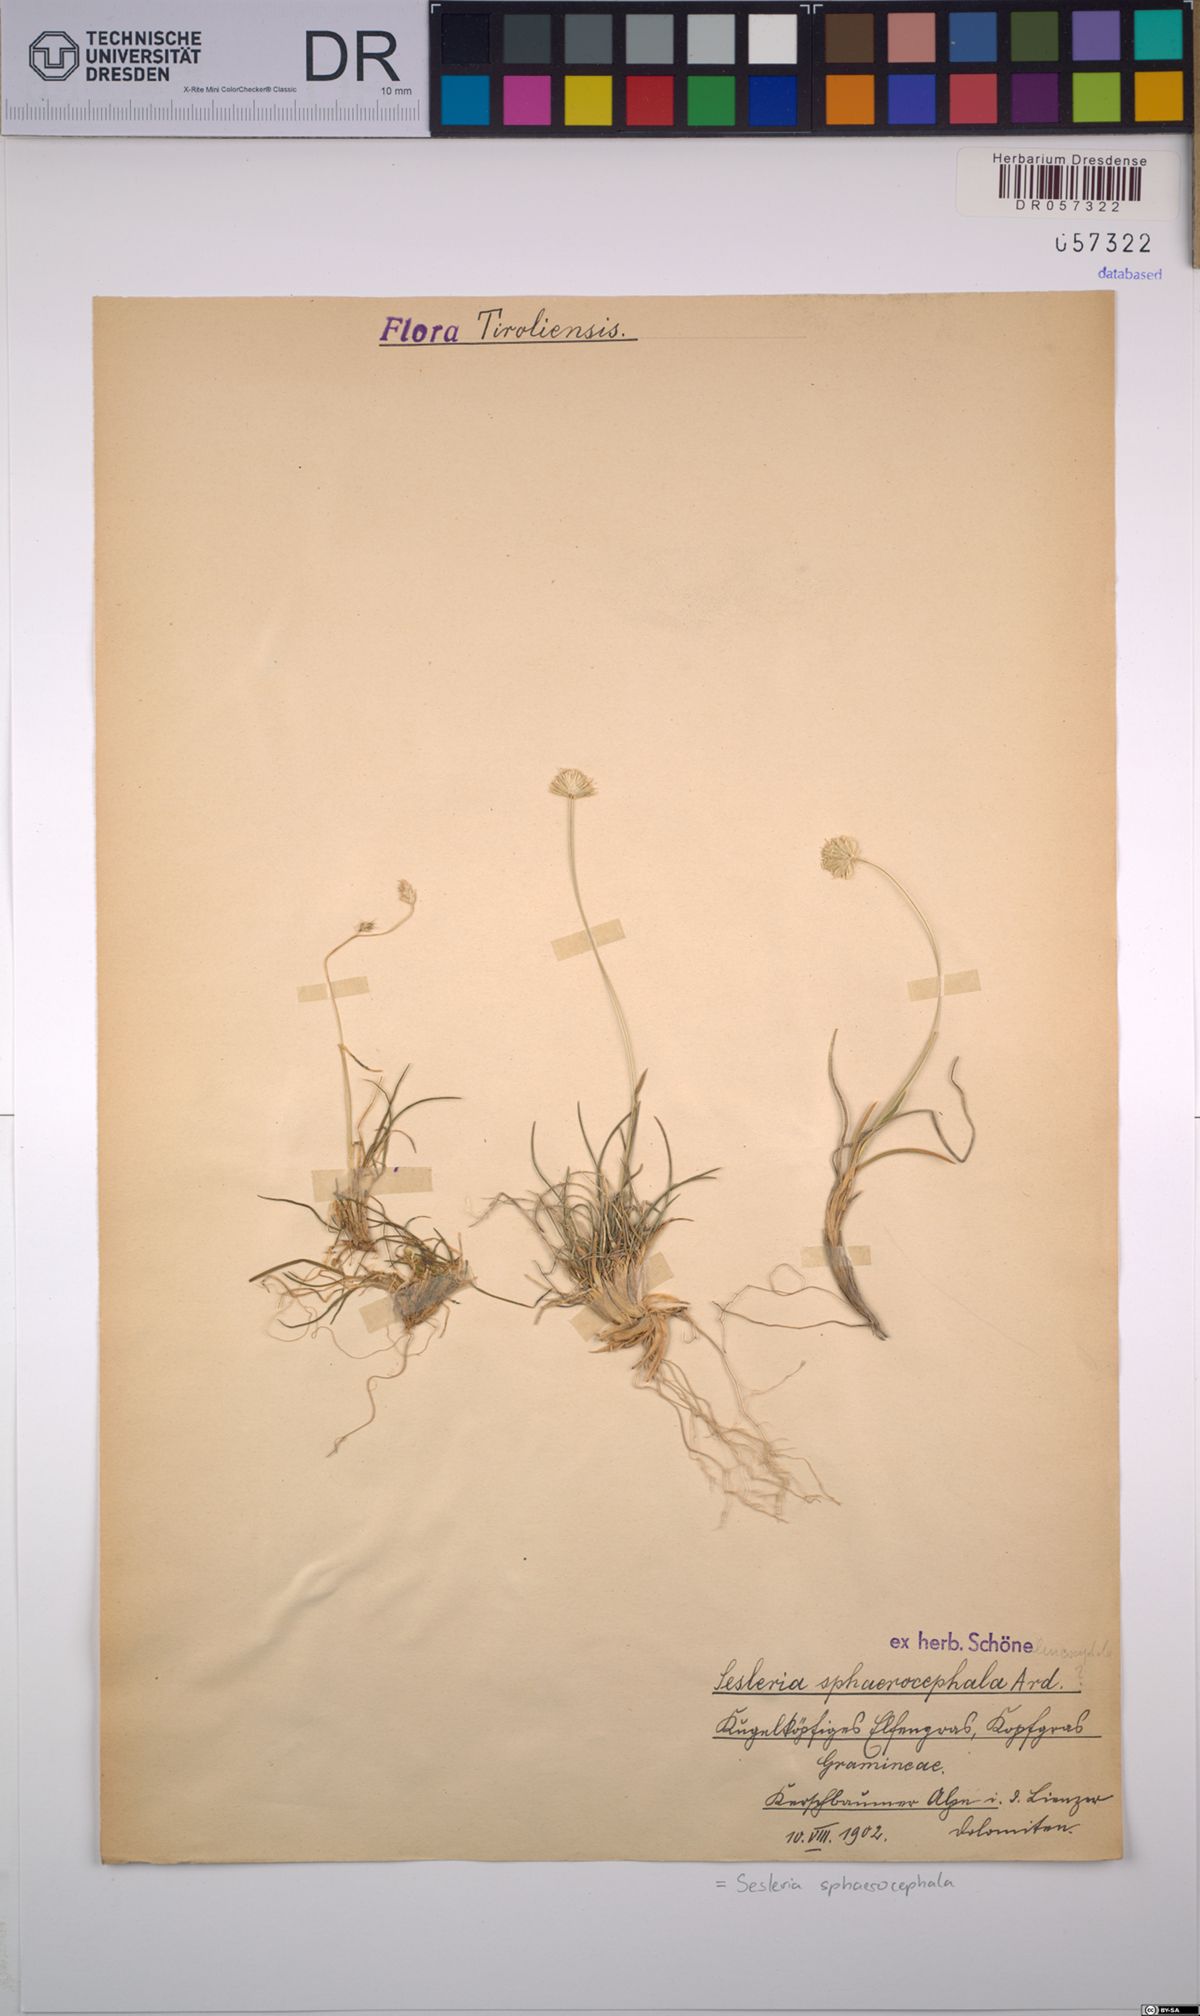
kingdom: Plantae
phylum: Tracheophyta
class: Liliopsida
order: Poales
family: Poaceae
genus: Sesleriella
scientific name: Sesleriella sphaerocephala
